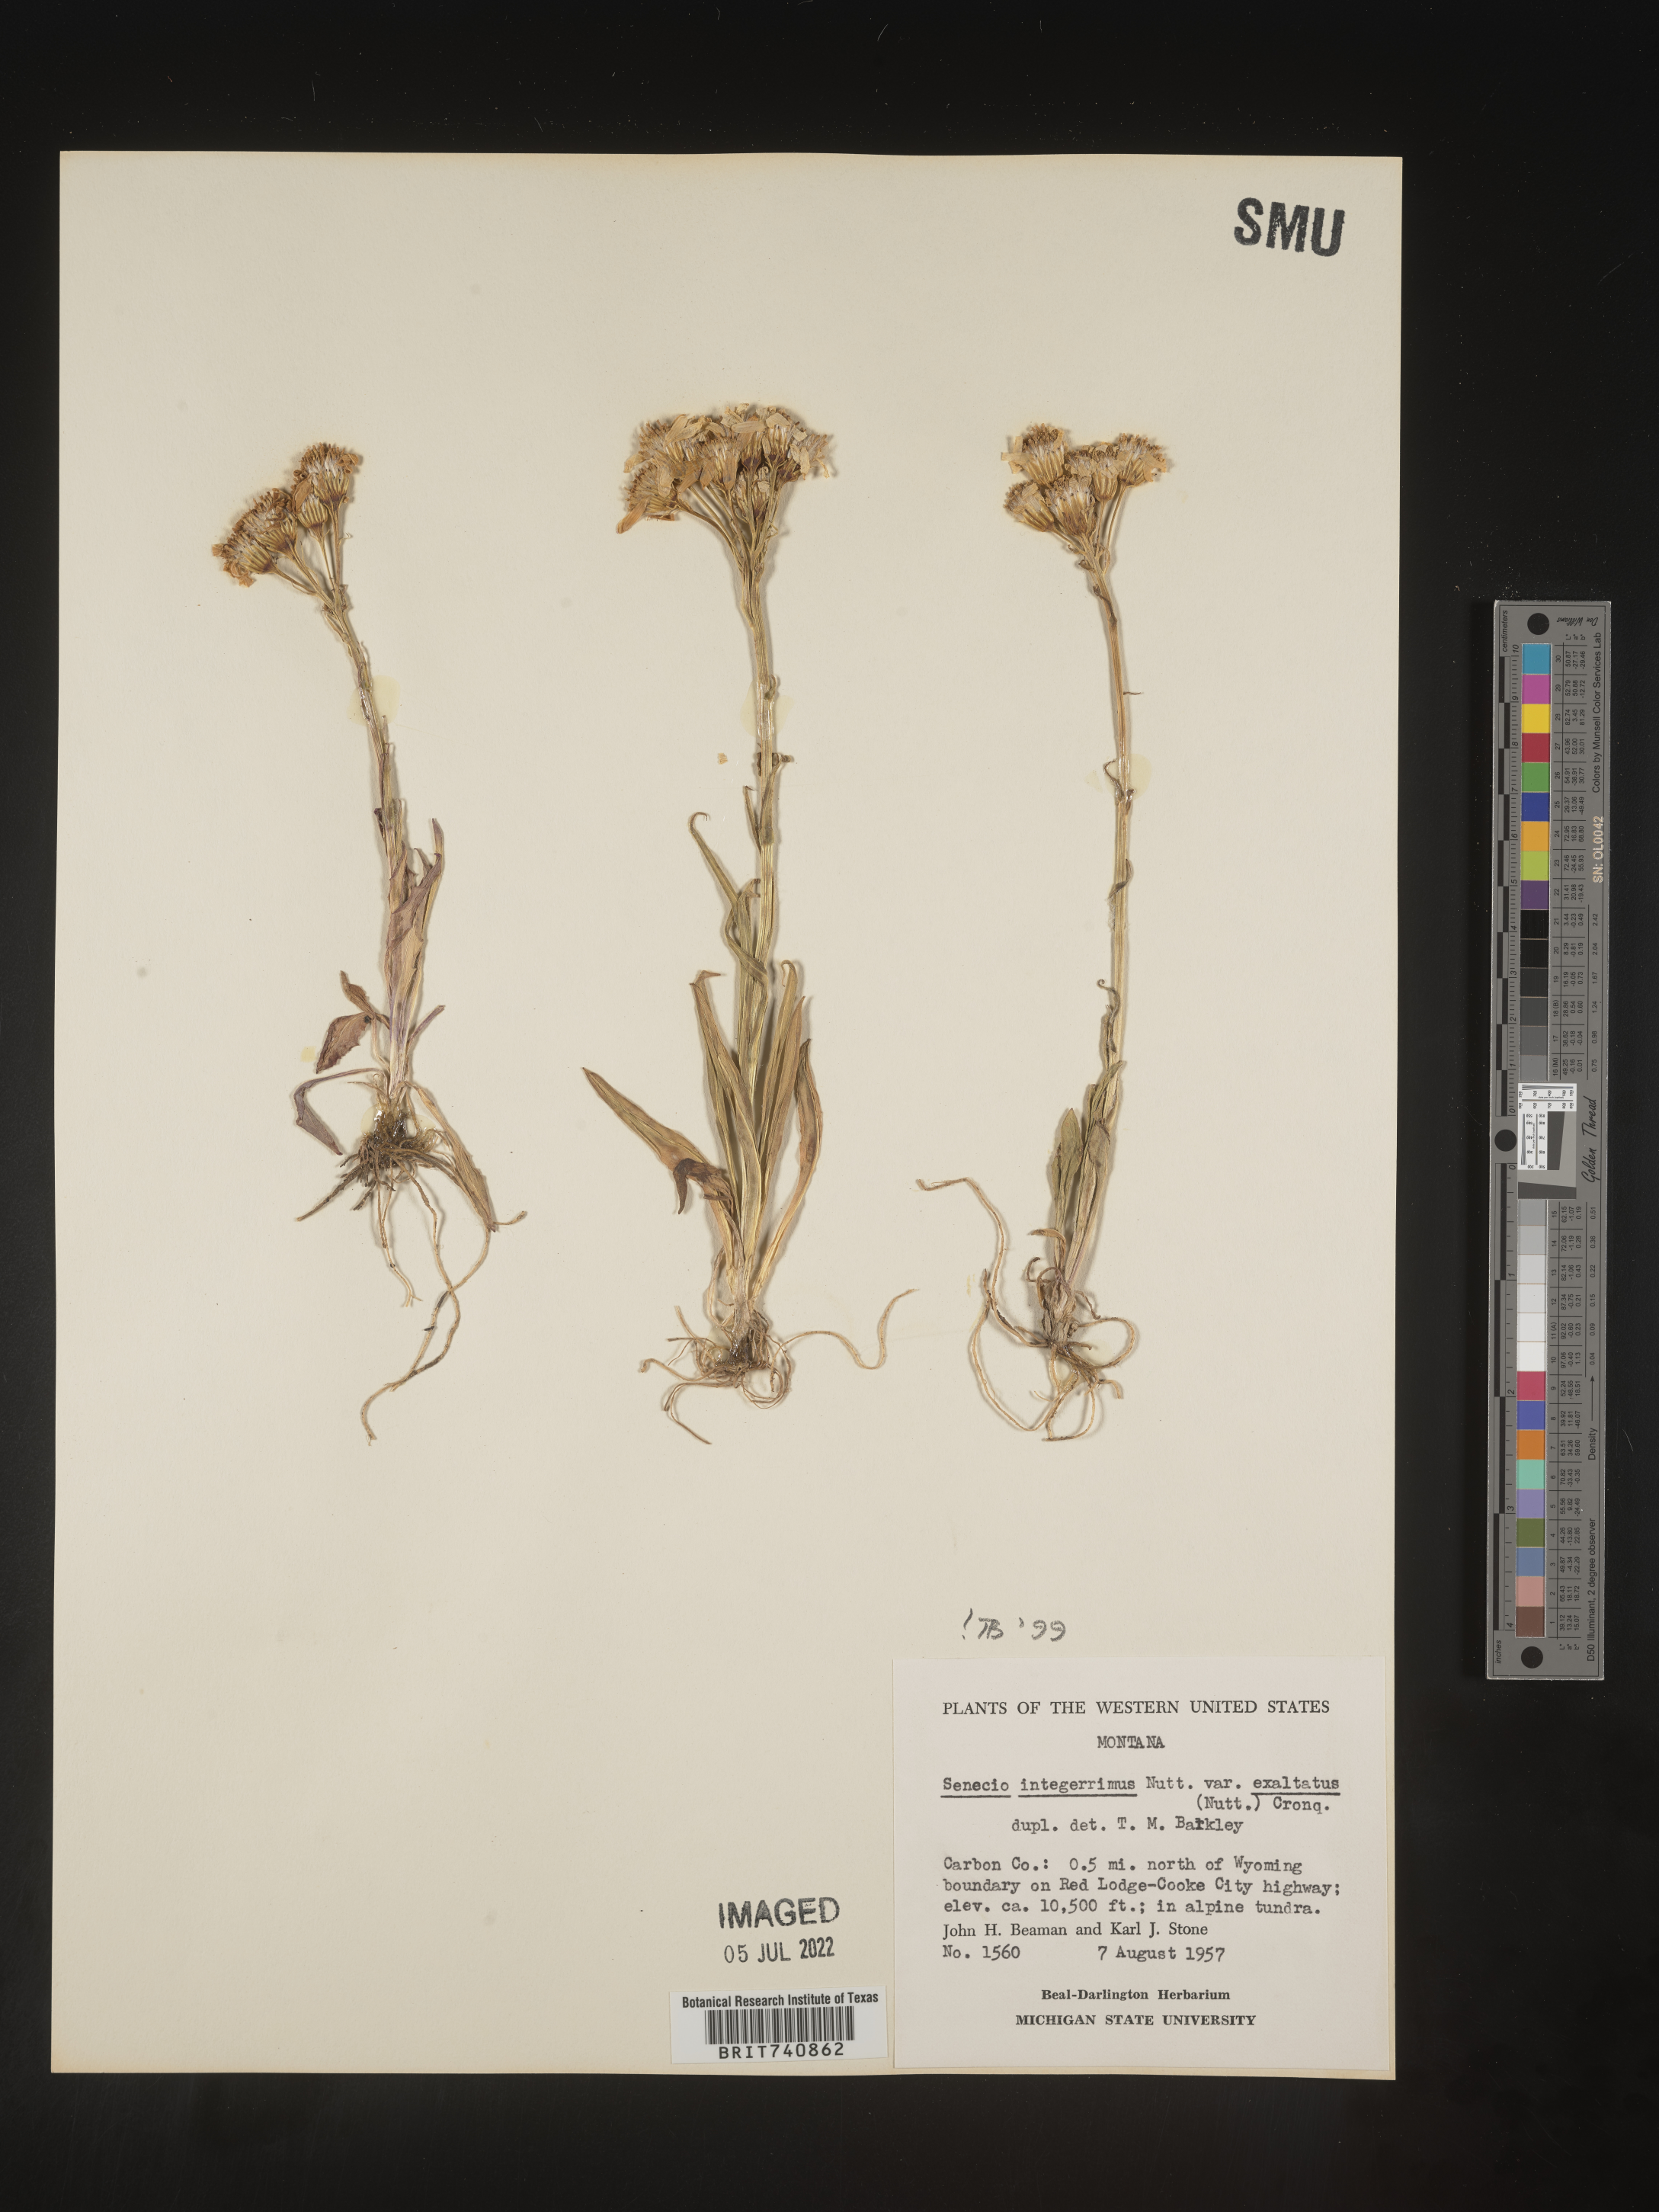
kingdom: Plantae
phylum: Tracheophyta
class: Magnoliopsida
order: Asterales
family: Asteraceae
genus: Senecio
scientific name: Senecio integerrimus
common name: Gaugeplant
